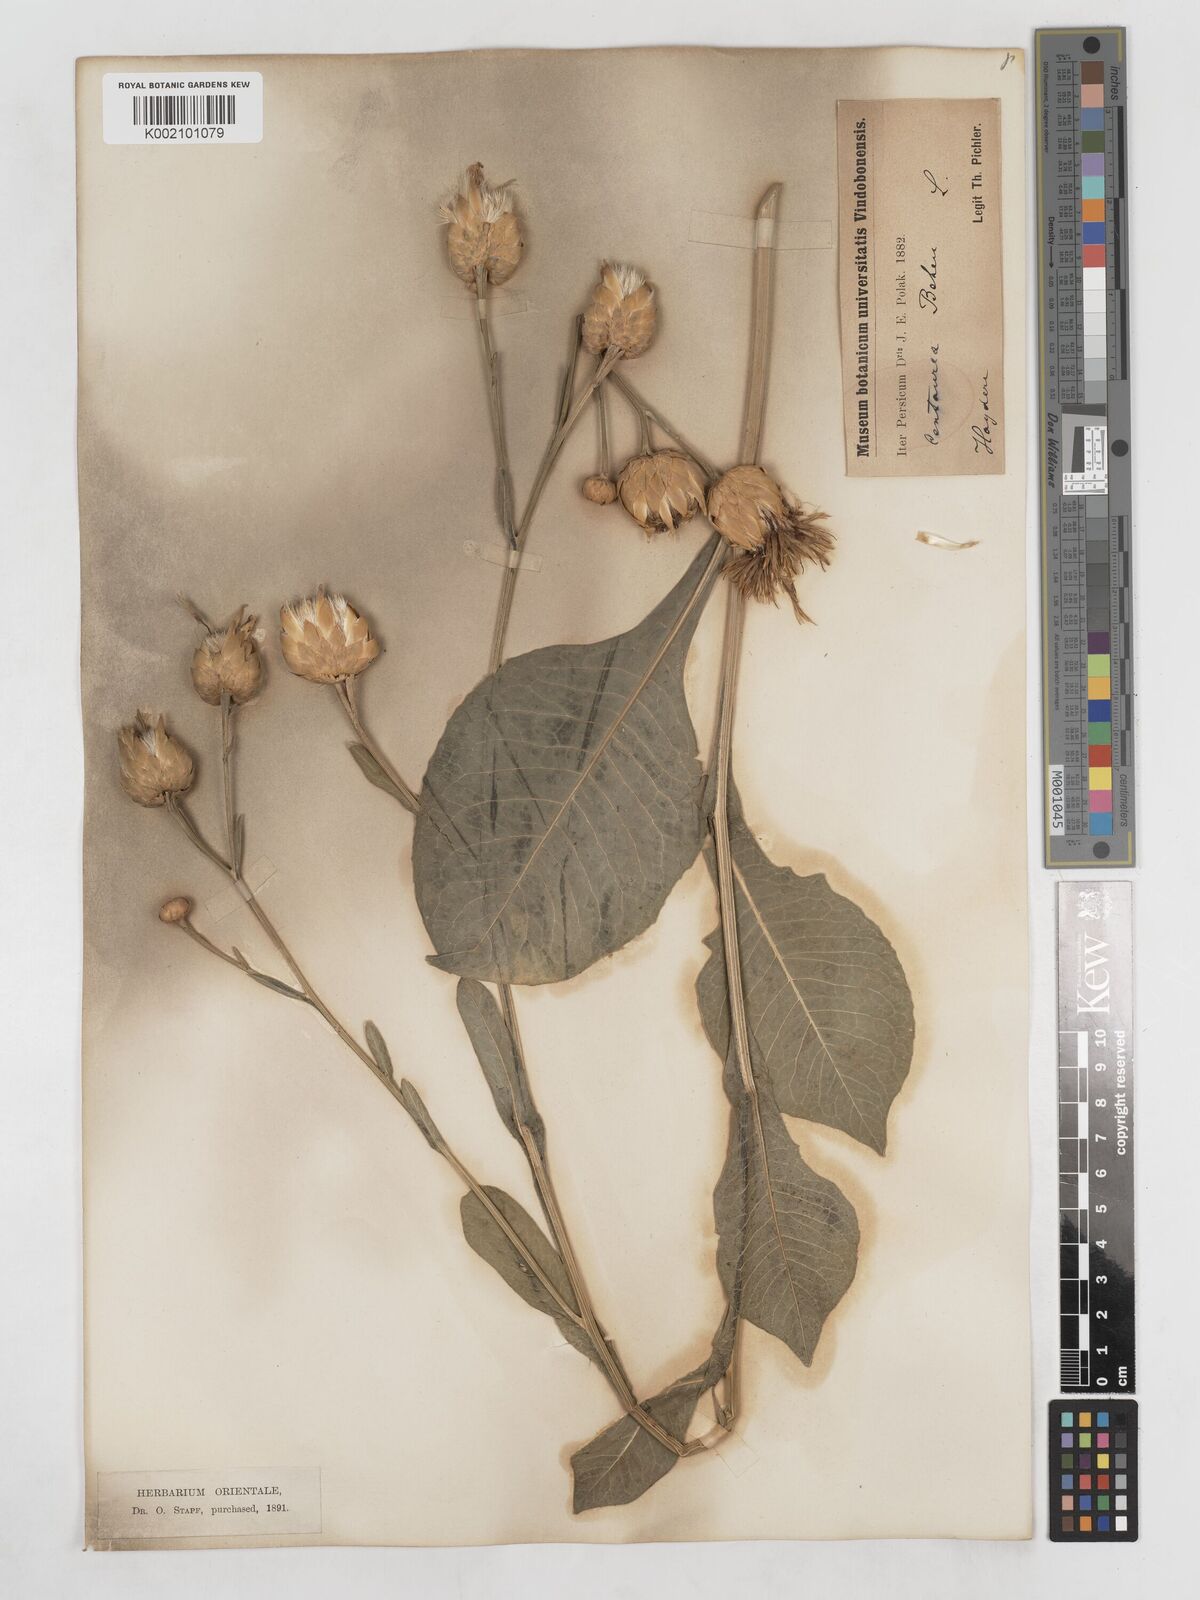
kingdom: Plantae
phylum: Tracheophyta
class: Magnoliopsida
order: Asterales
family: Asteraceae
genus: Centaurea
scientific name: Centaurea behen
